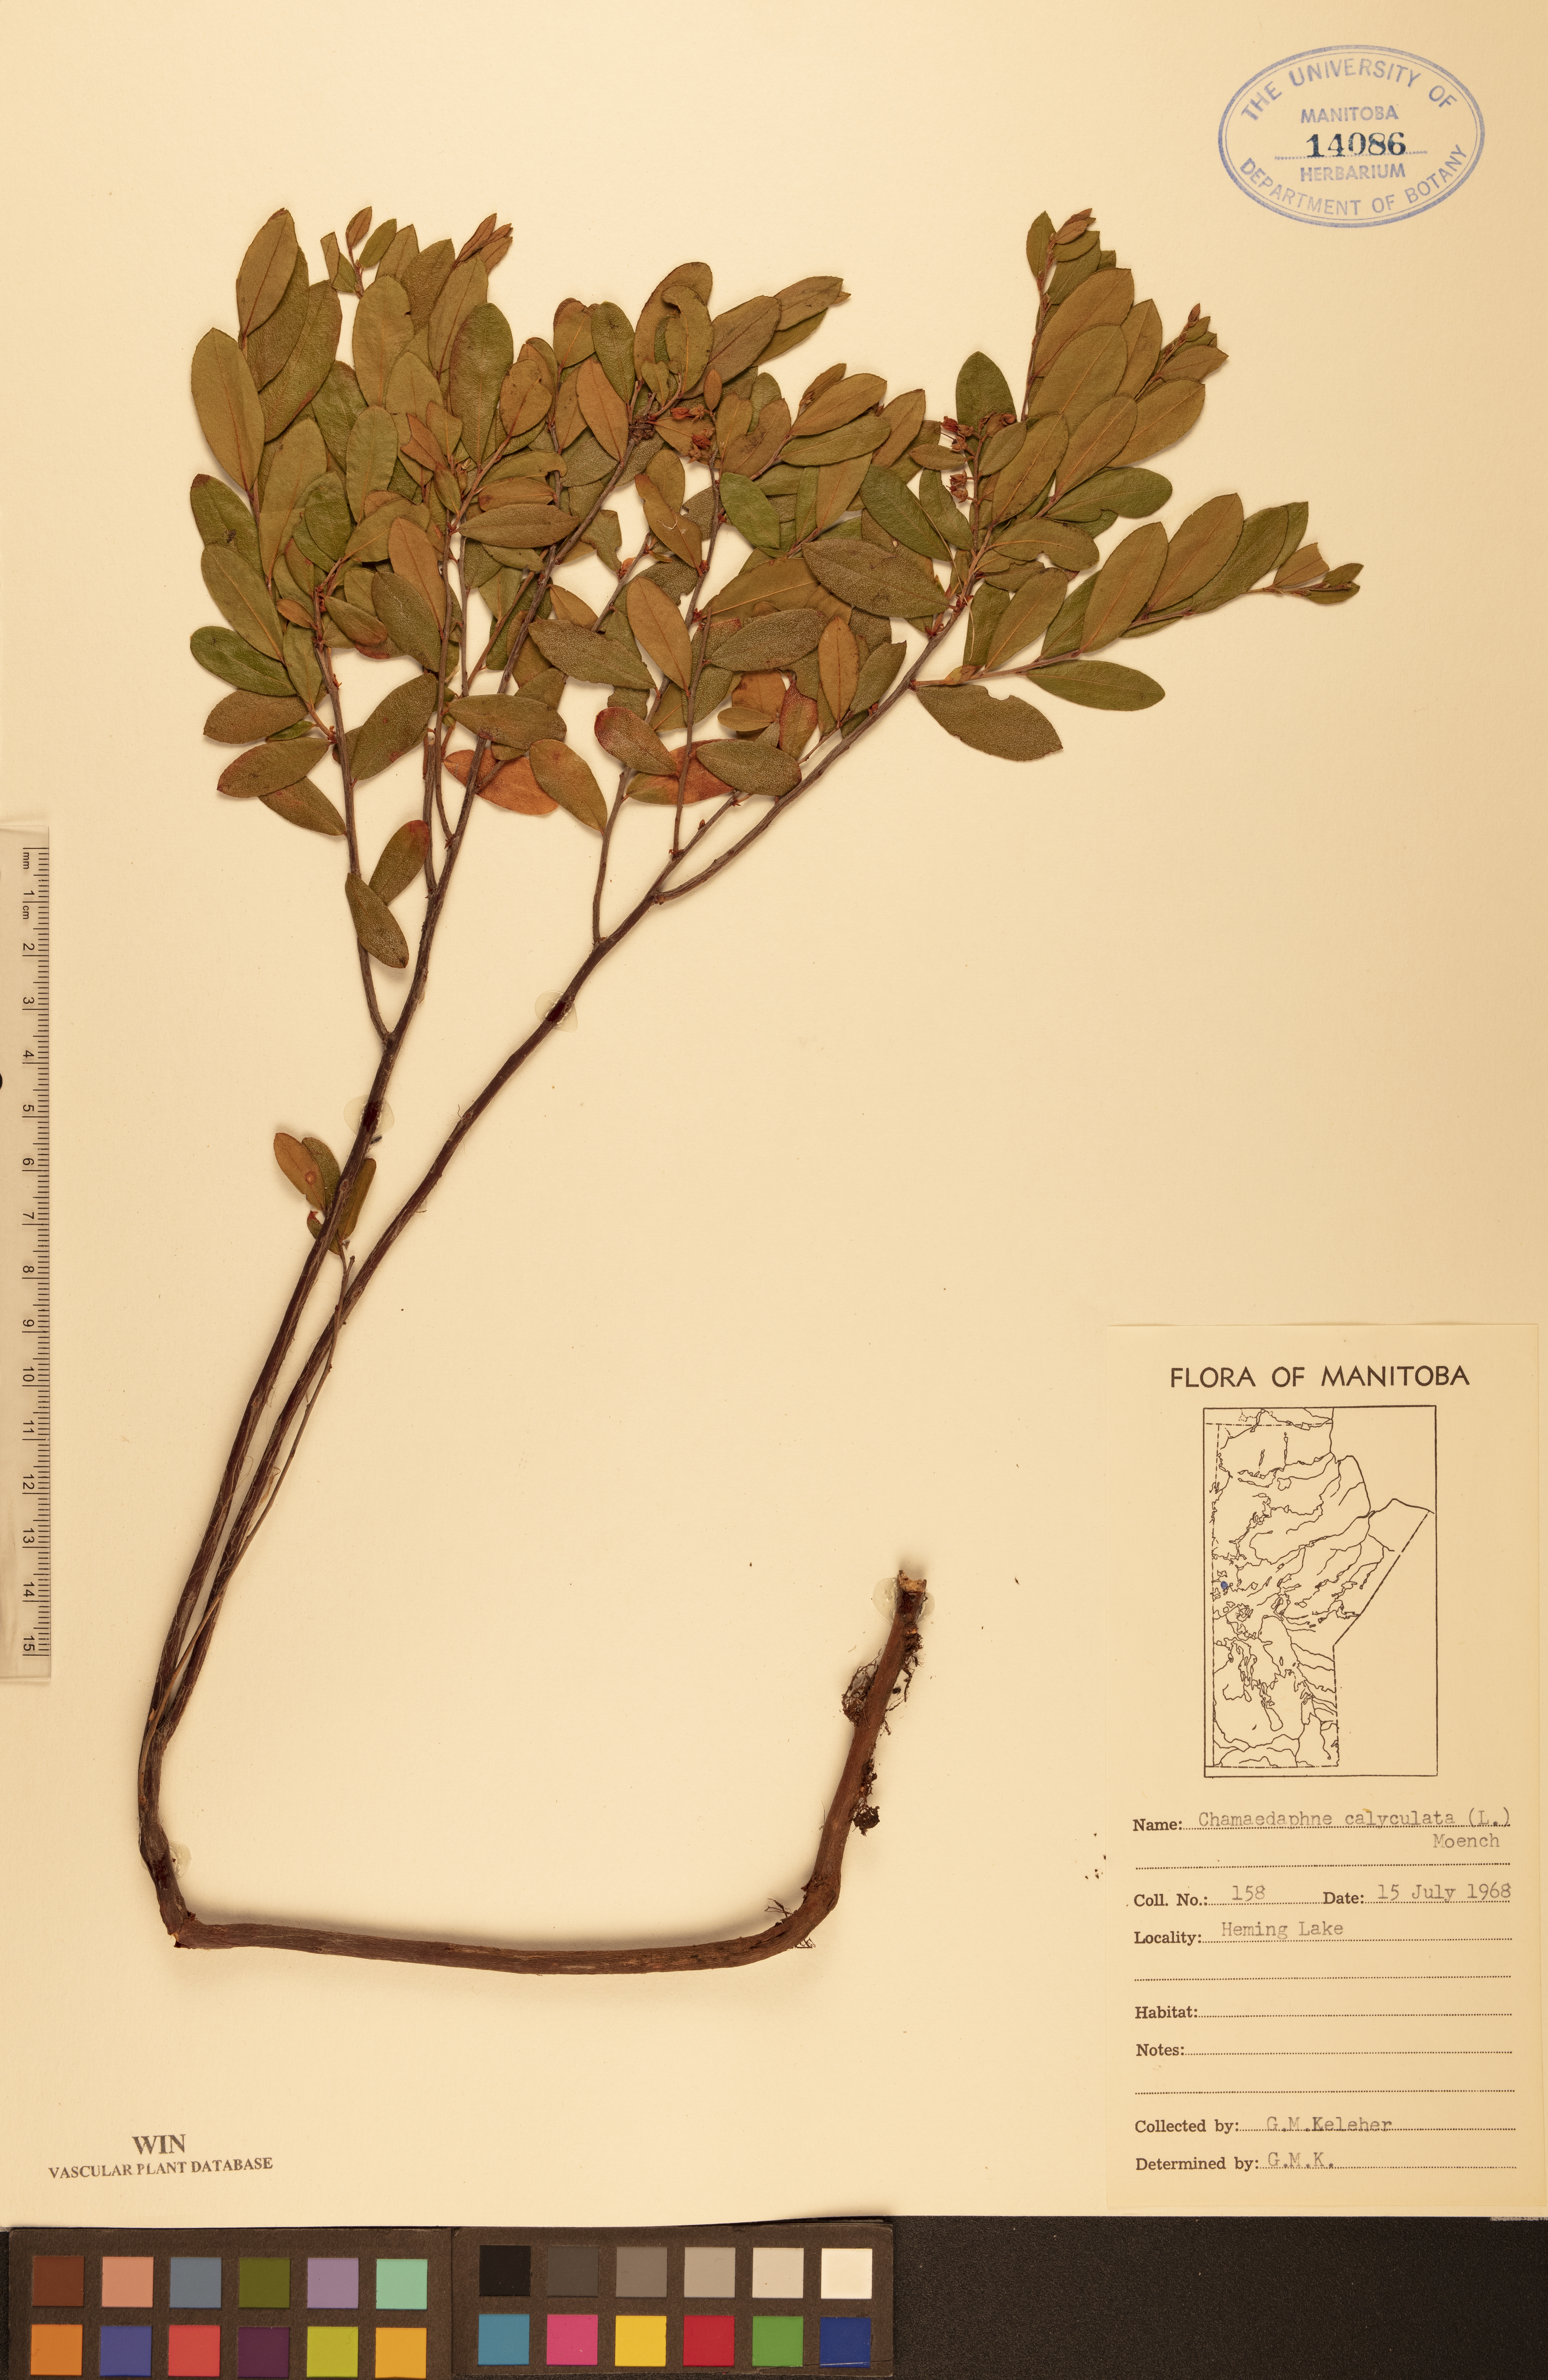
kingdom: Plantae
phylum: Tracheophyta
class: Magnoliopsida
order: Ericales
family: Ericaceae
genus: Chamaedaphne
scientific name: Chamaedaphne calyculata
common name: Leatherleaf
